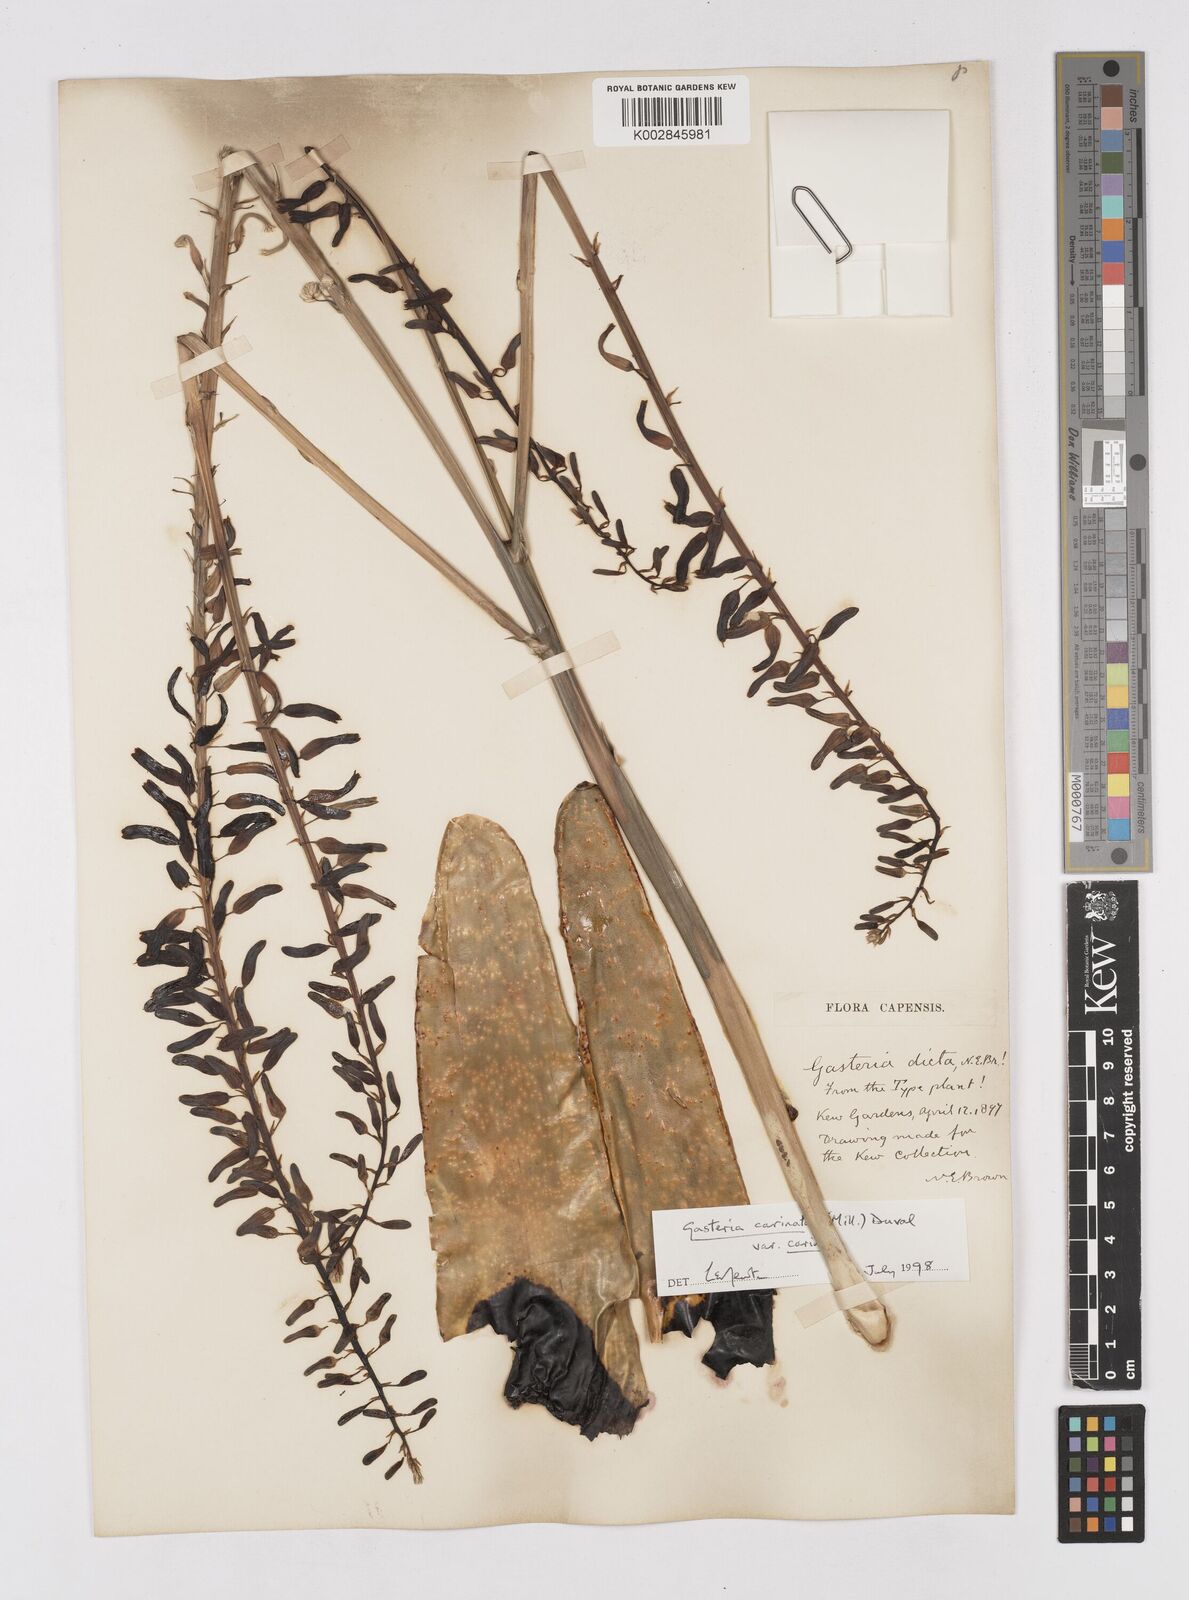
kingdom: Plantae
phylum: Tracheophyta
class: Liliopsida
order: Asparagales
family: Asphodelaceae
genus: Gasteria
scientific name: Gasteria dicta
